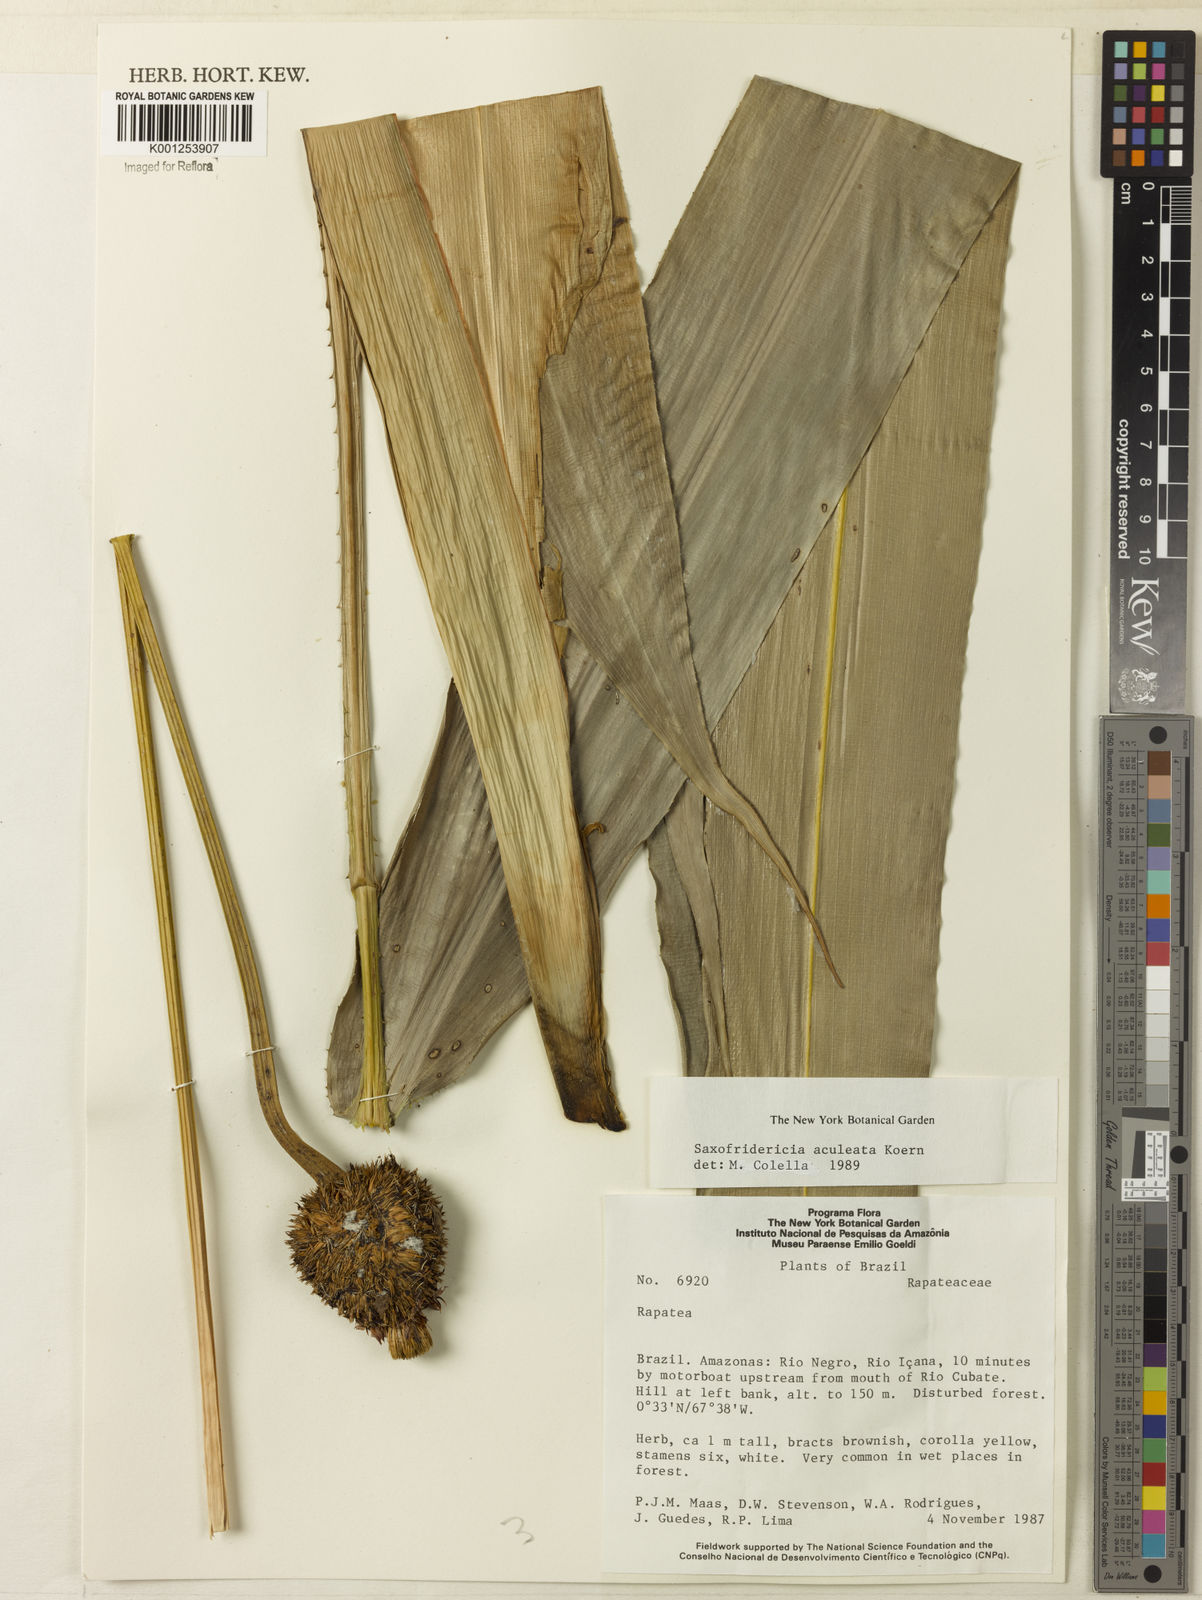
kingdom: Plantae
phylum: Tracheophyta
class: Liliopsida
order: Poales
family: Rapateaceae
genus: Saxofridericia
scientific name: Saxofridericia aculeata
